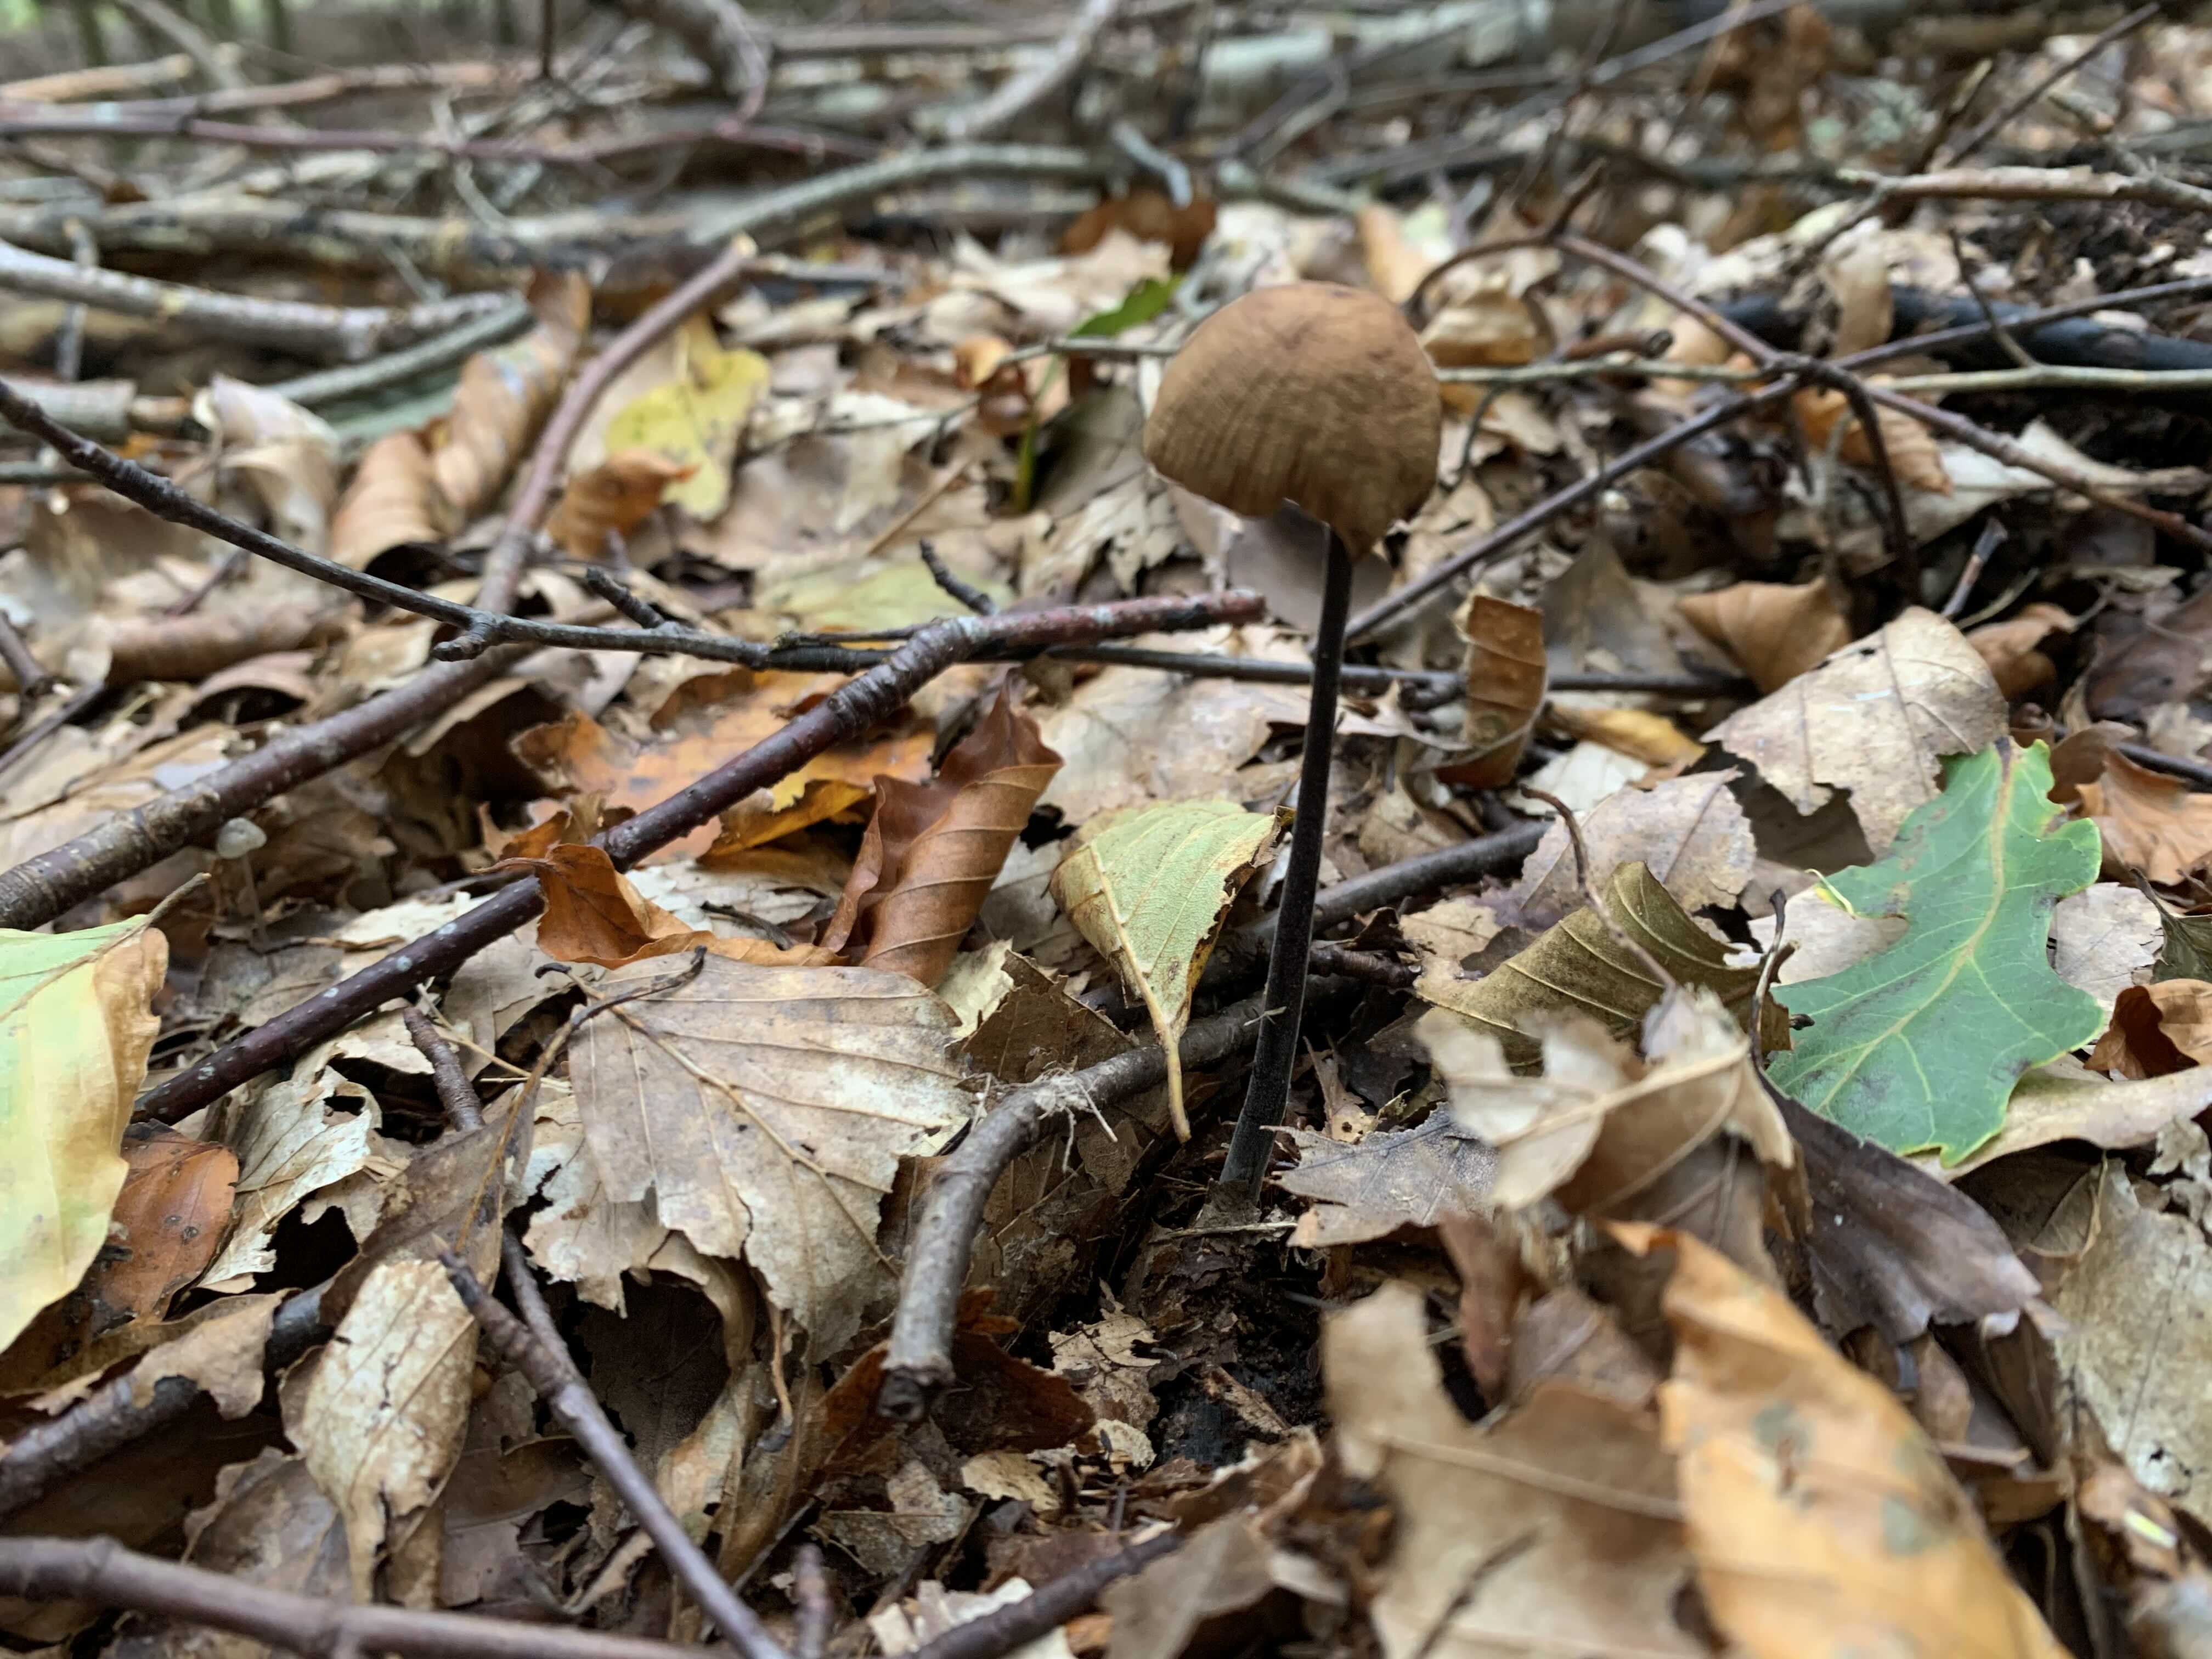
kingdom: Fungi
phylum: Basidiomycota
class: Agaricomycetes
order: Agaricales
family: Omphalotaceae
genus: Mycetinis
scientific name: Mycetinis alliaceus
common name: stor løghat
